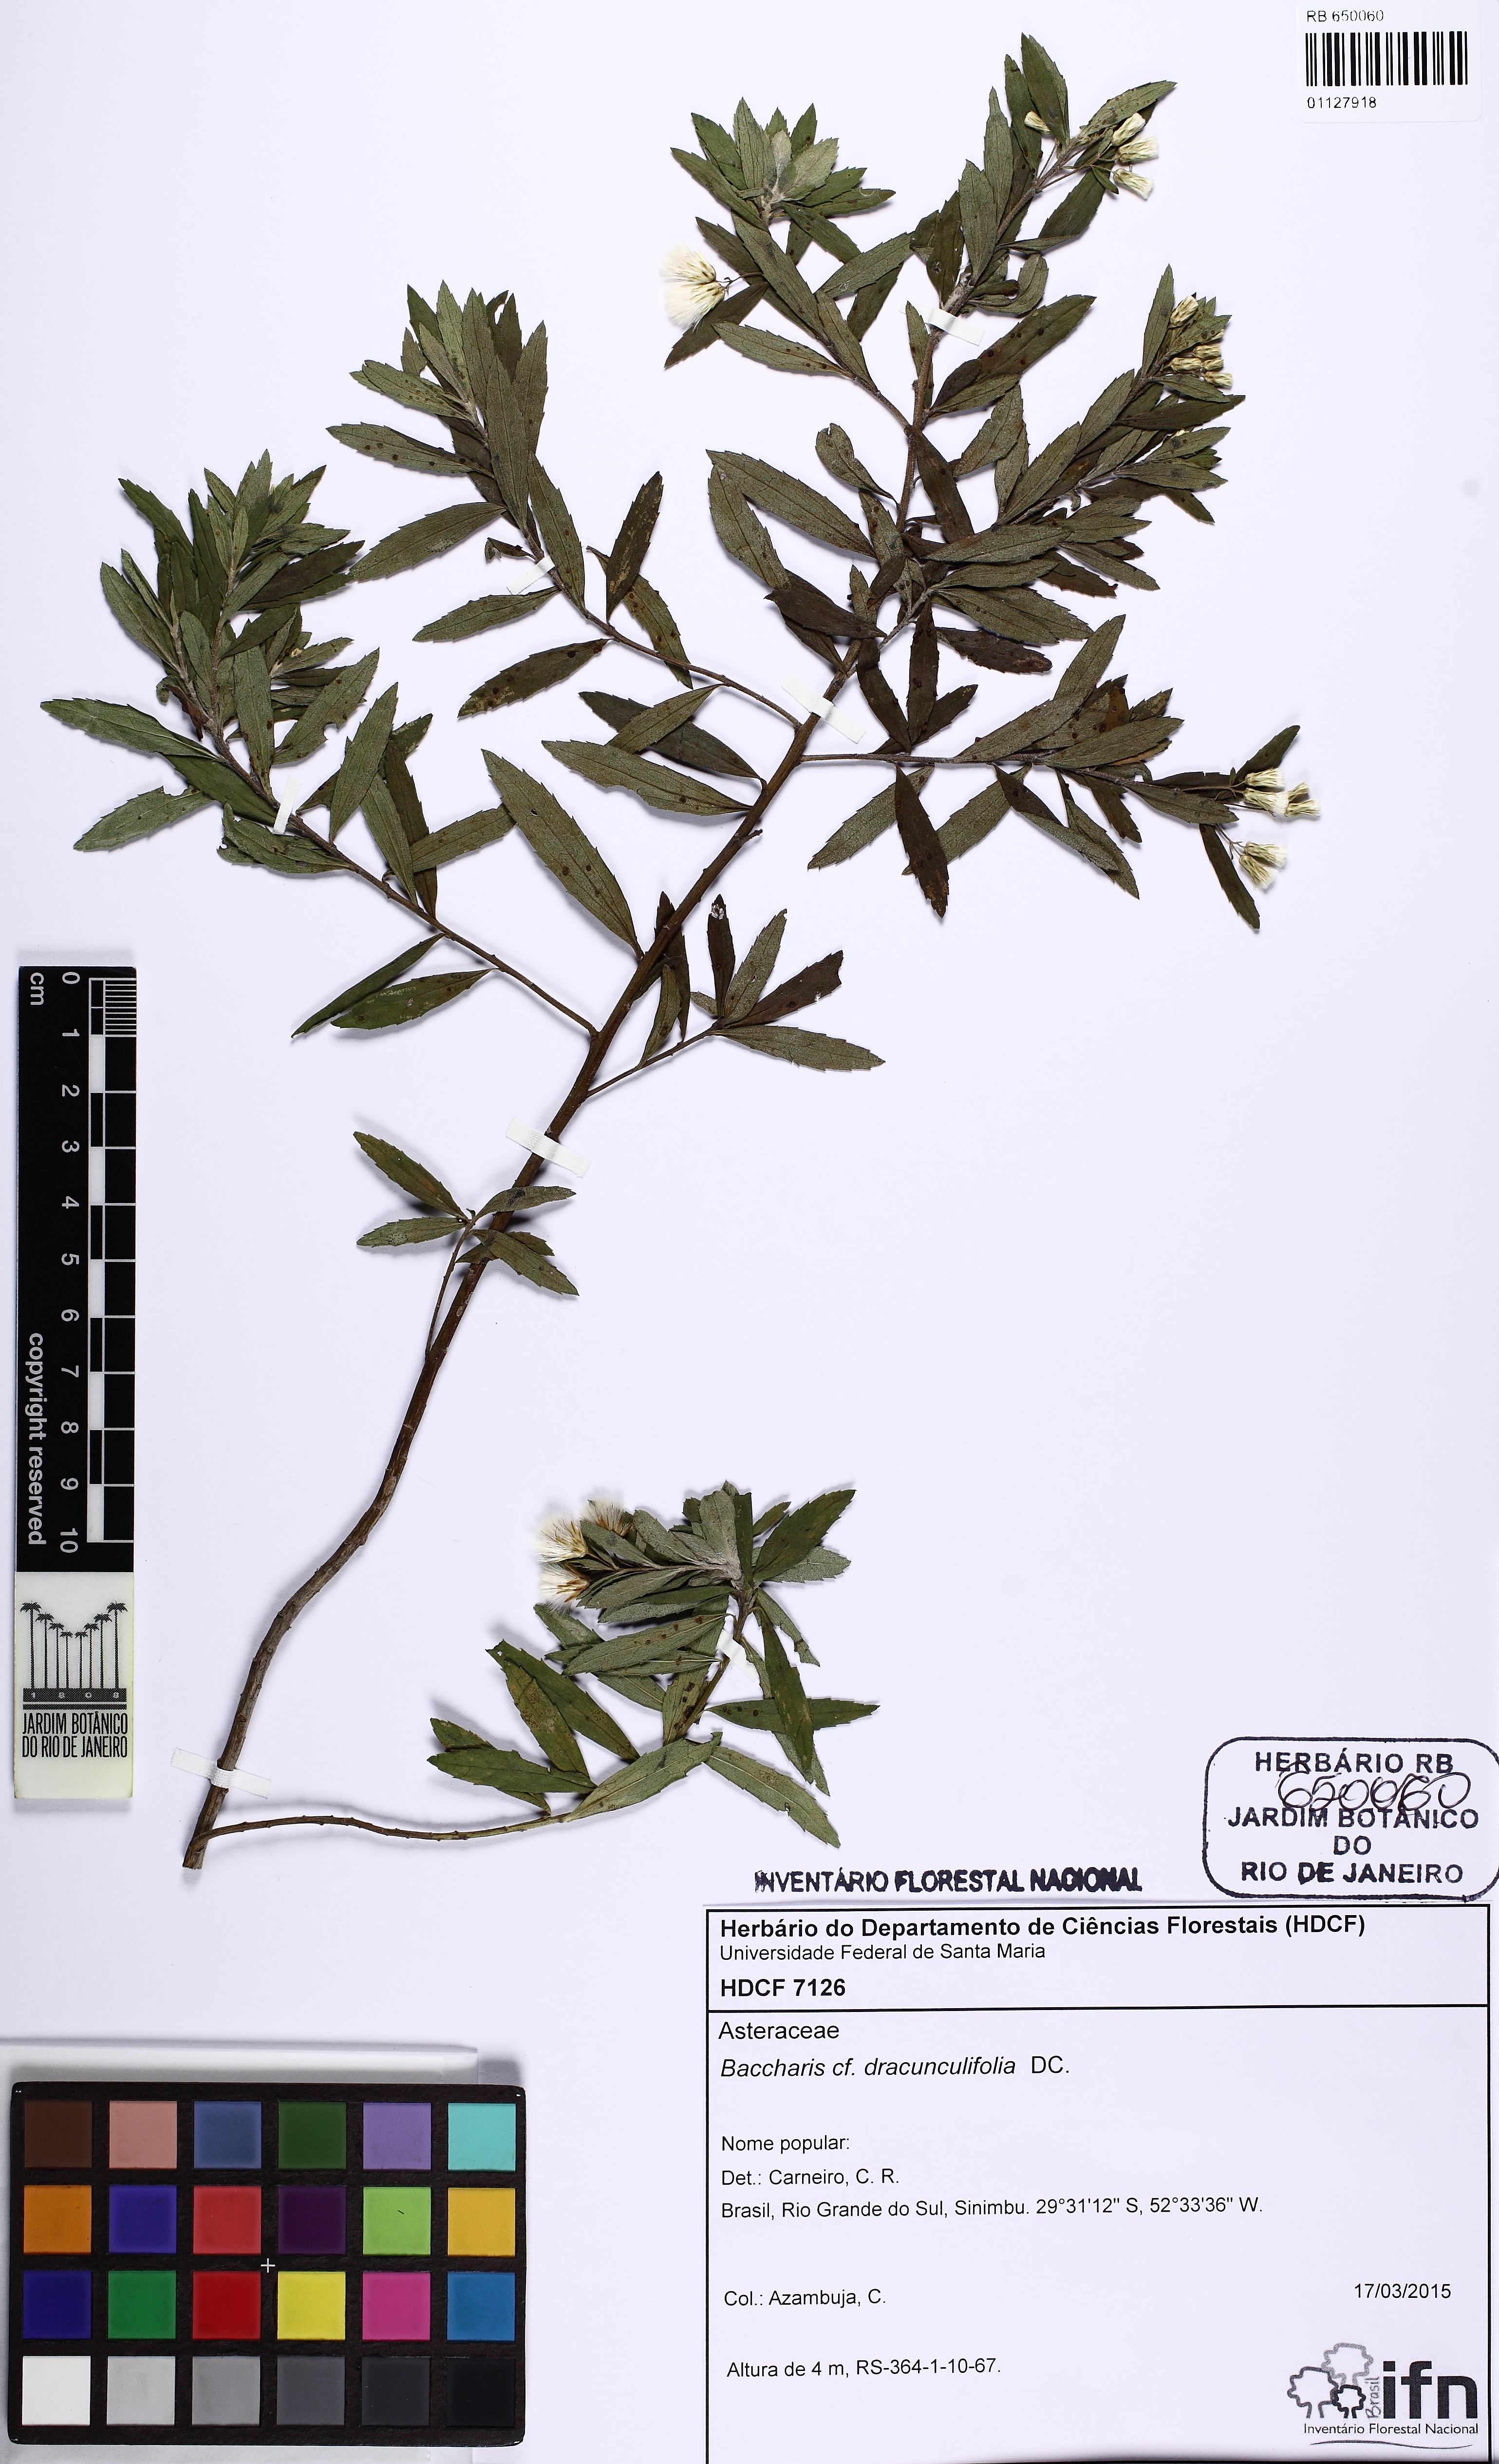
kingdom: Plantae
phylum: Tracheophyta
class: Magnoliopsida
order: Asterales
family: Asteraceae
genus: Baccharis
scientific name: Baccharis dracunculifolia
